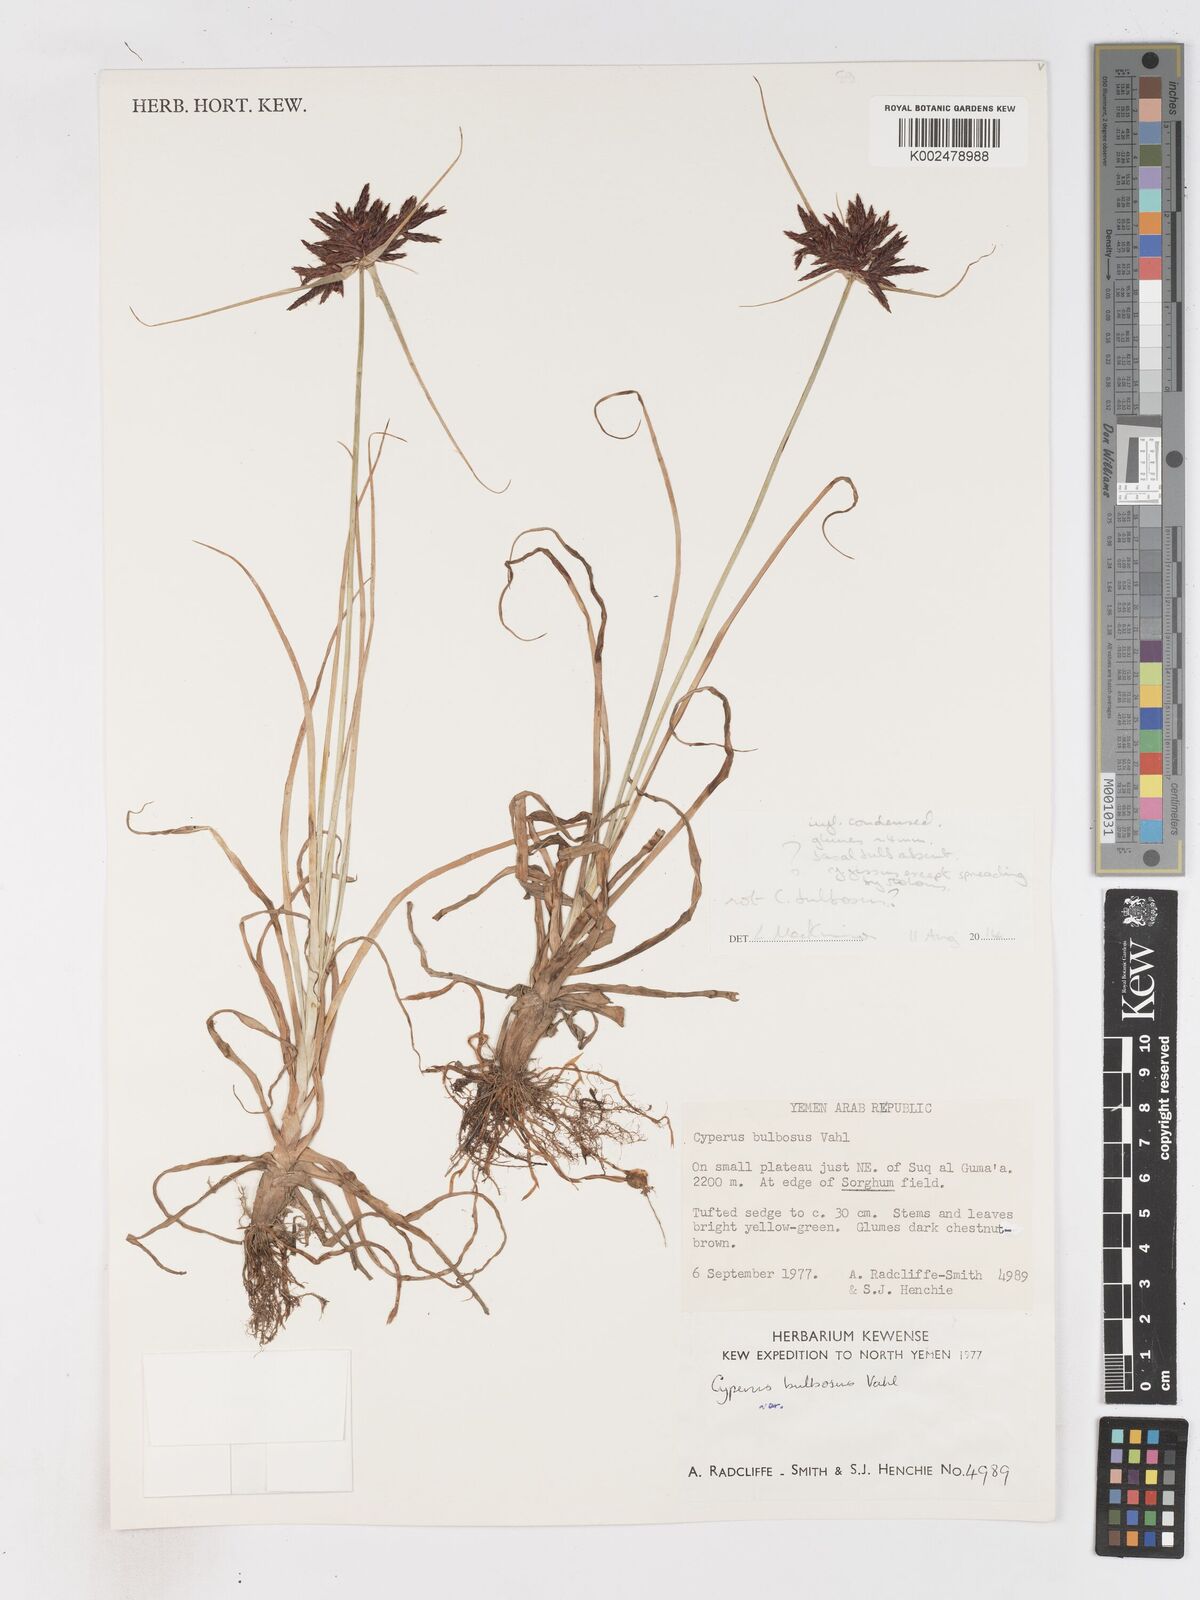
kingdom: Plantae
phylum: Tracheophyta
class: Liliopsida
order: Poales
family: Cyperaceae
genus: Cyperus
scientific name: Cyperus
